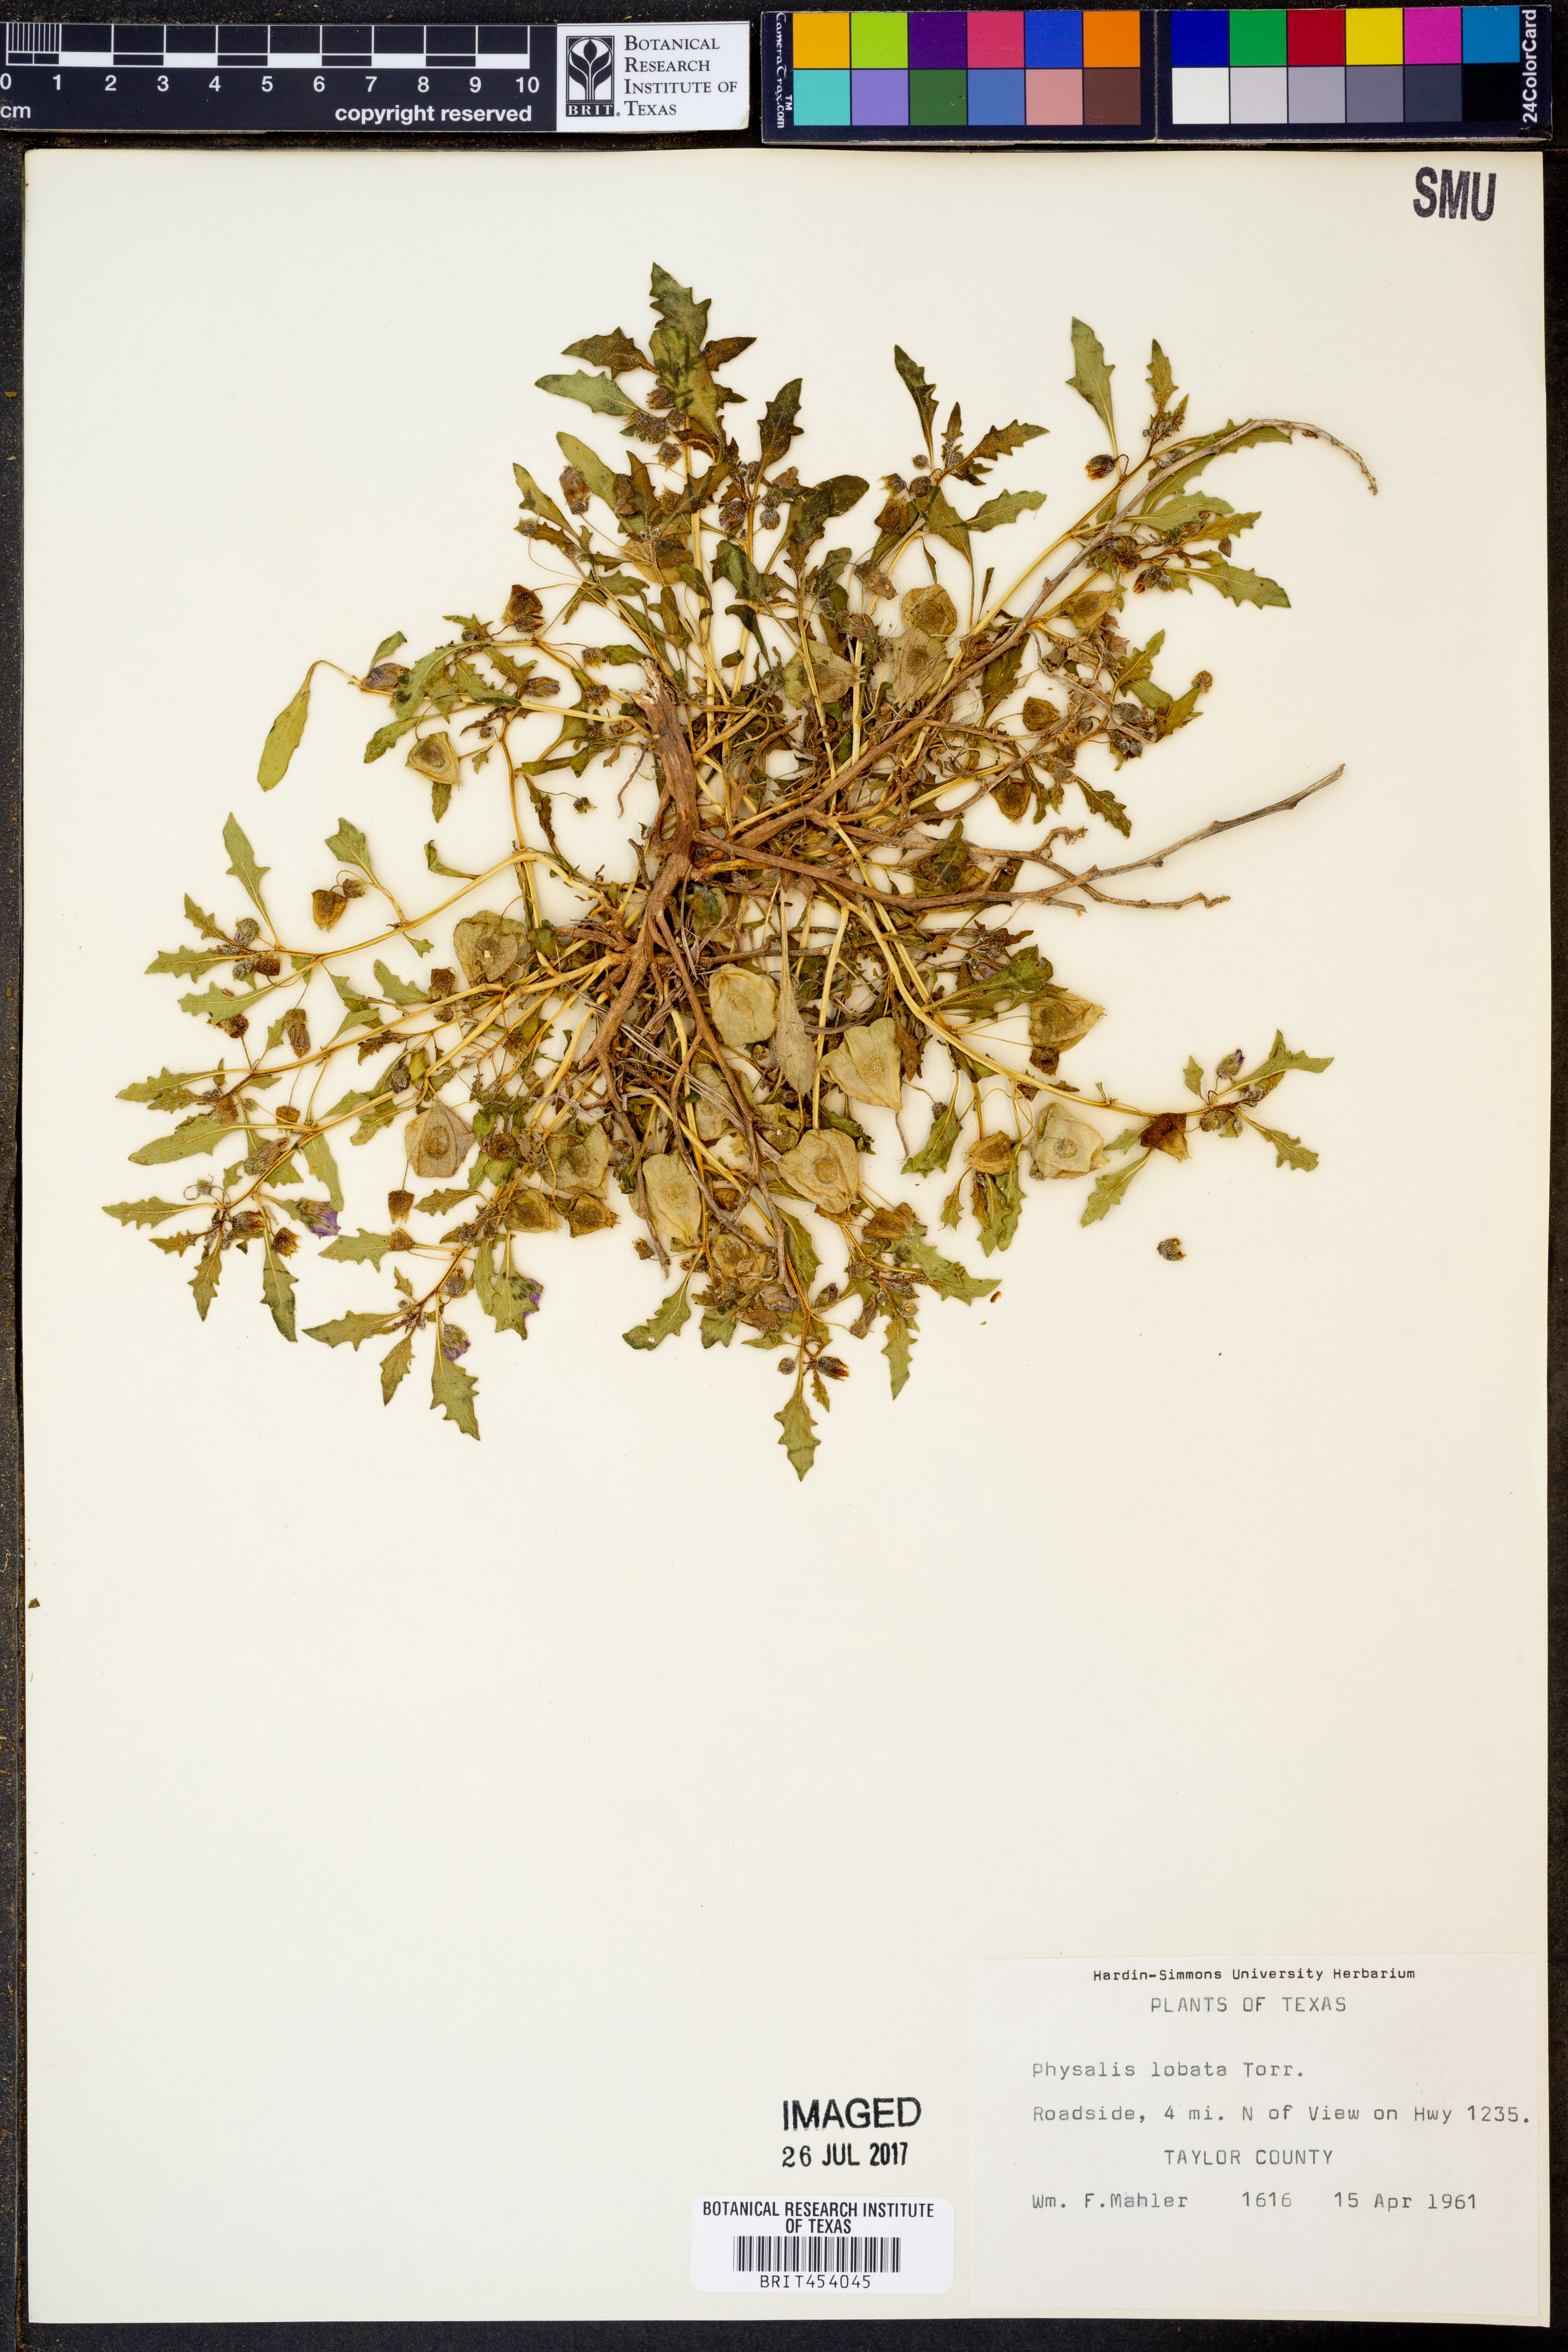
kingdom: Plantae
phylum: Tracheophyta
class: Magnoliopsida
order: Solanales
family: Solanaceae
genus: Quincula
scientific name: Quincula lobata
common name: Purple-ground-cherry
